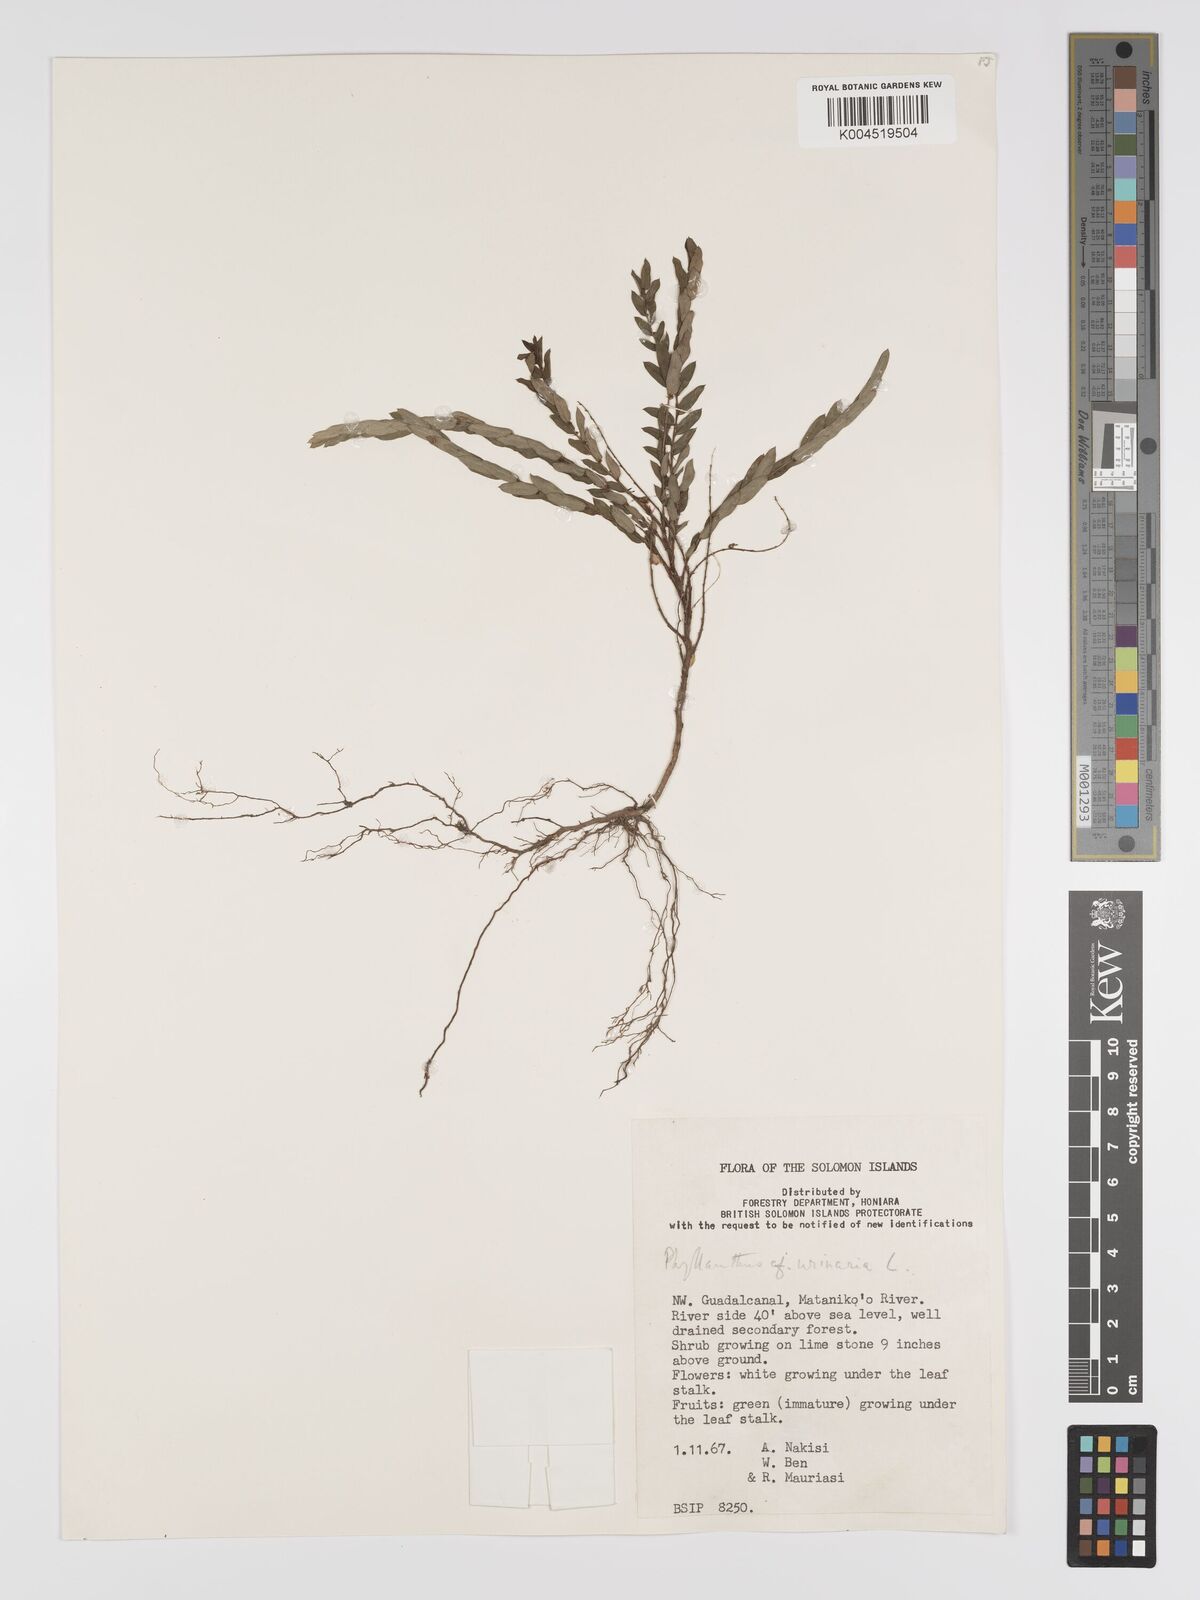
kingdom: Plantae
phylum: Tracheophyta
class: Magnoliopsida
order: Malpighiales
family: Phyllanthaceae
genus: Phyllanthus
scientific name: Phyllanthus urinaria
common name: Chamber bitter
